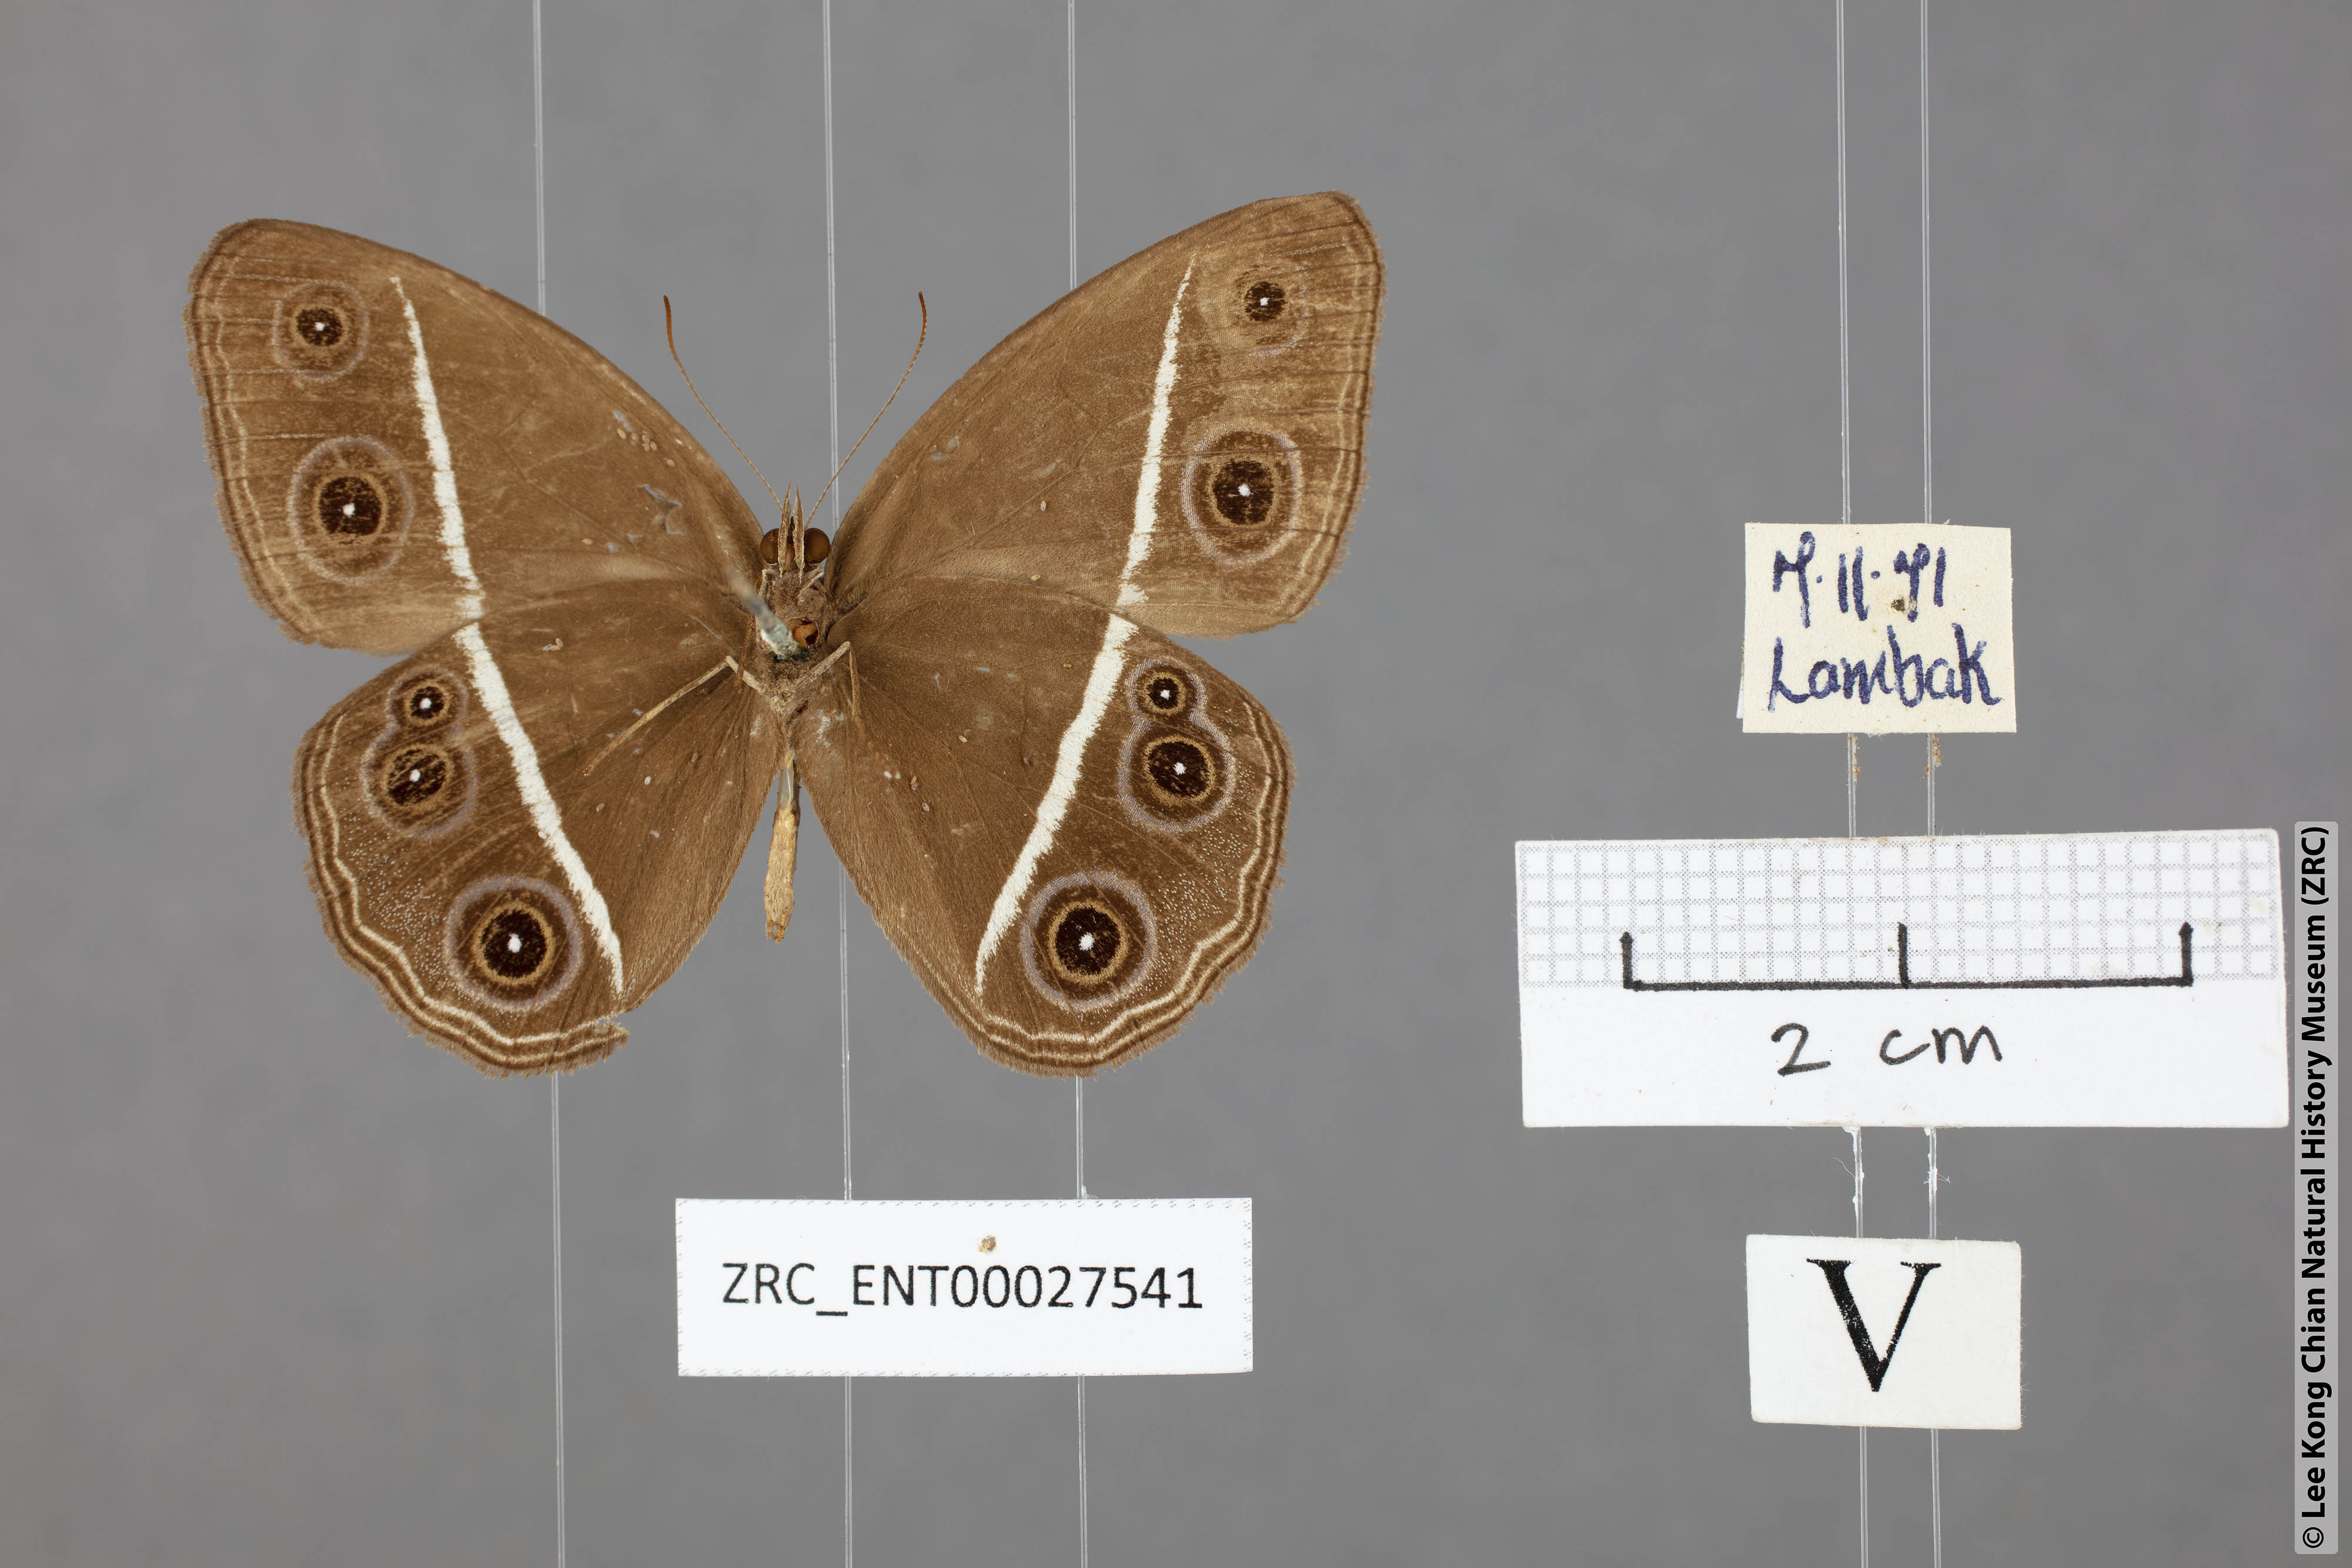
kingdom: Animalia
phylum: Arthropoda
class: Insecta
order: Lepidoptera
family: Nymphalidae
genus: Orsotriaena
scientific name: Orsotriaena medus
